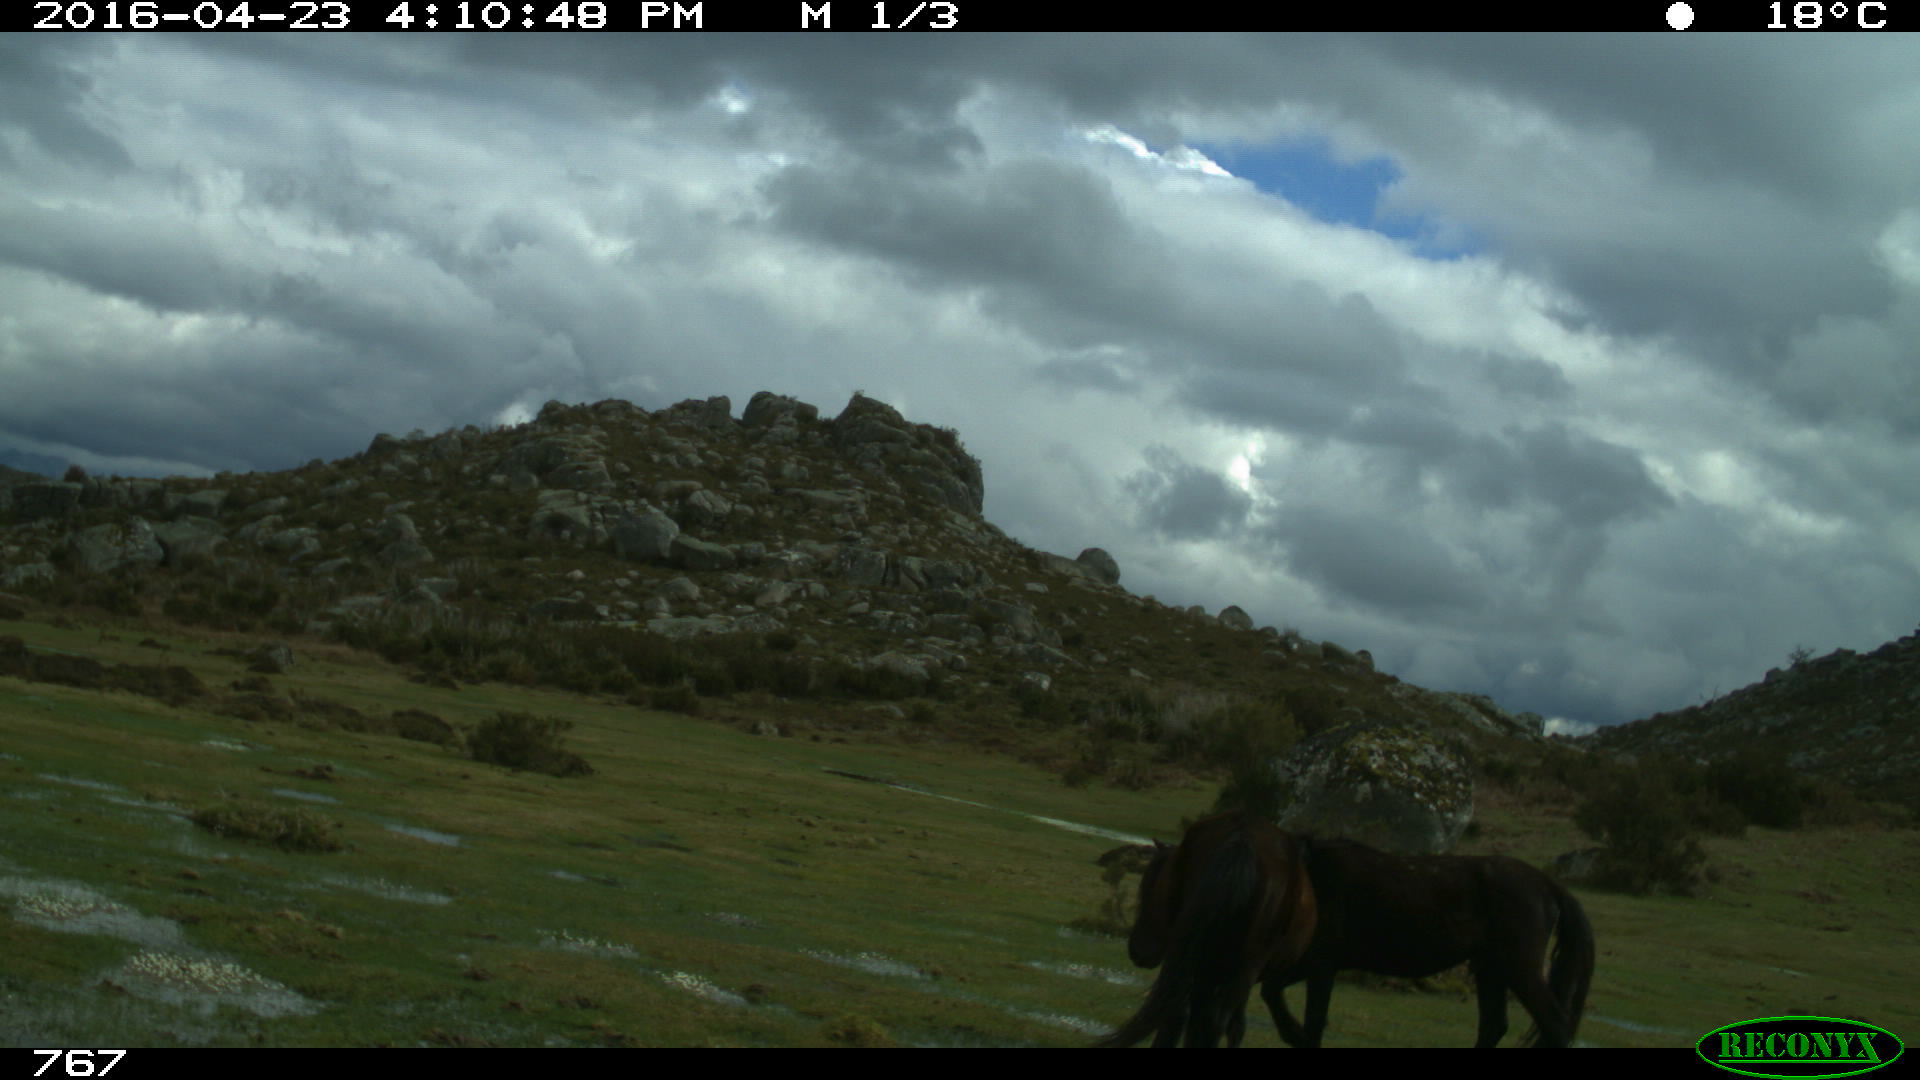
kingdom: Animalia
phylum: Chordata
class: Mammalia
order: Perissodactyla
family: Equidae
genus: Equus
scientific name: Equus caballus
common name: Horse
